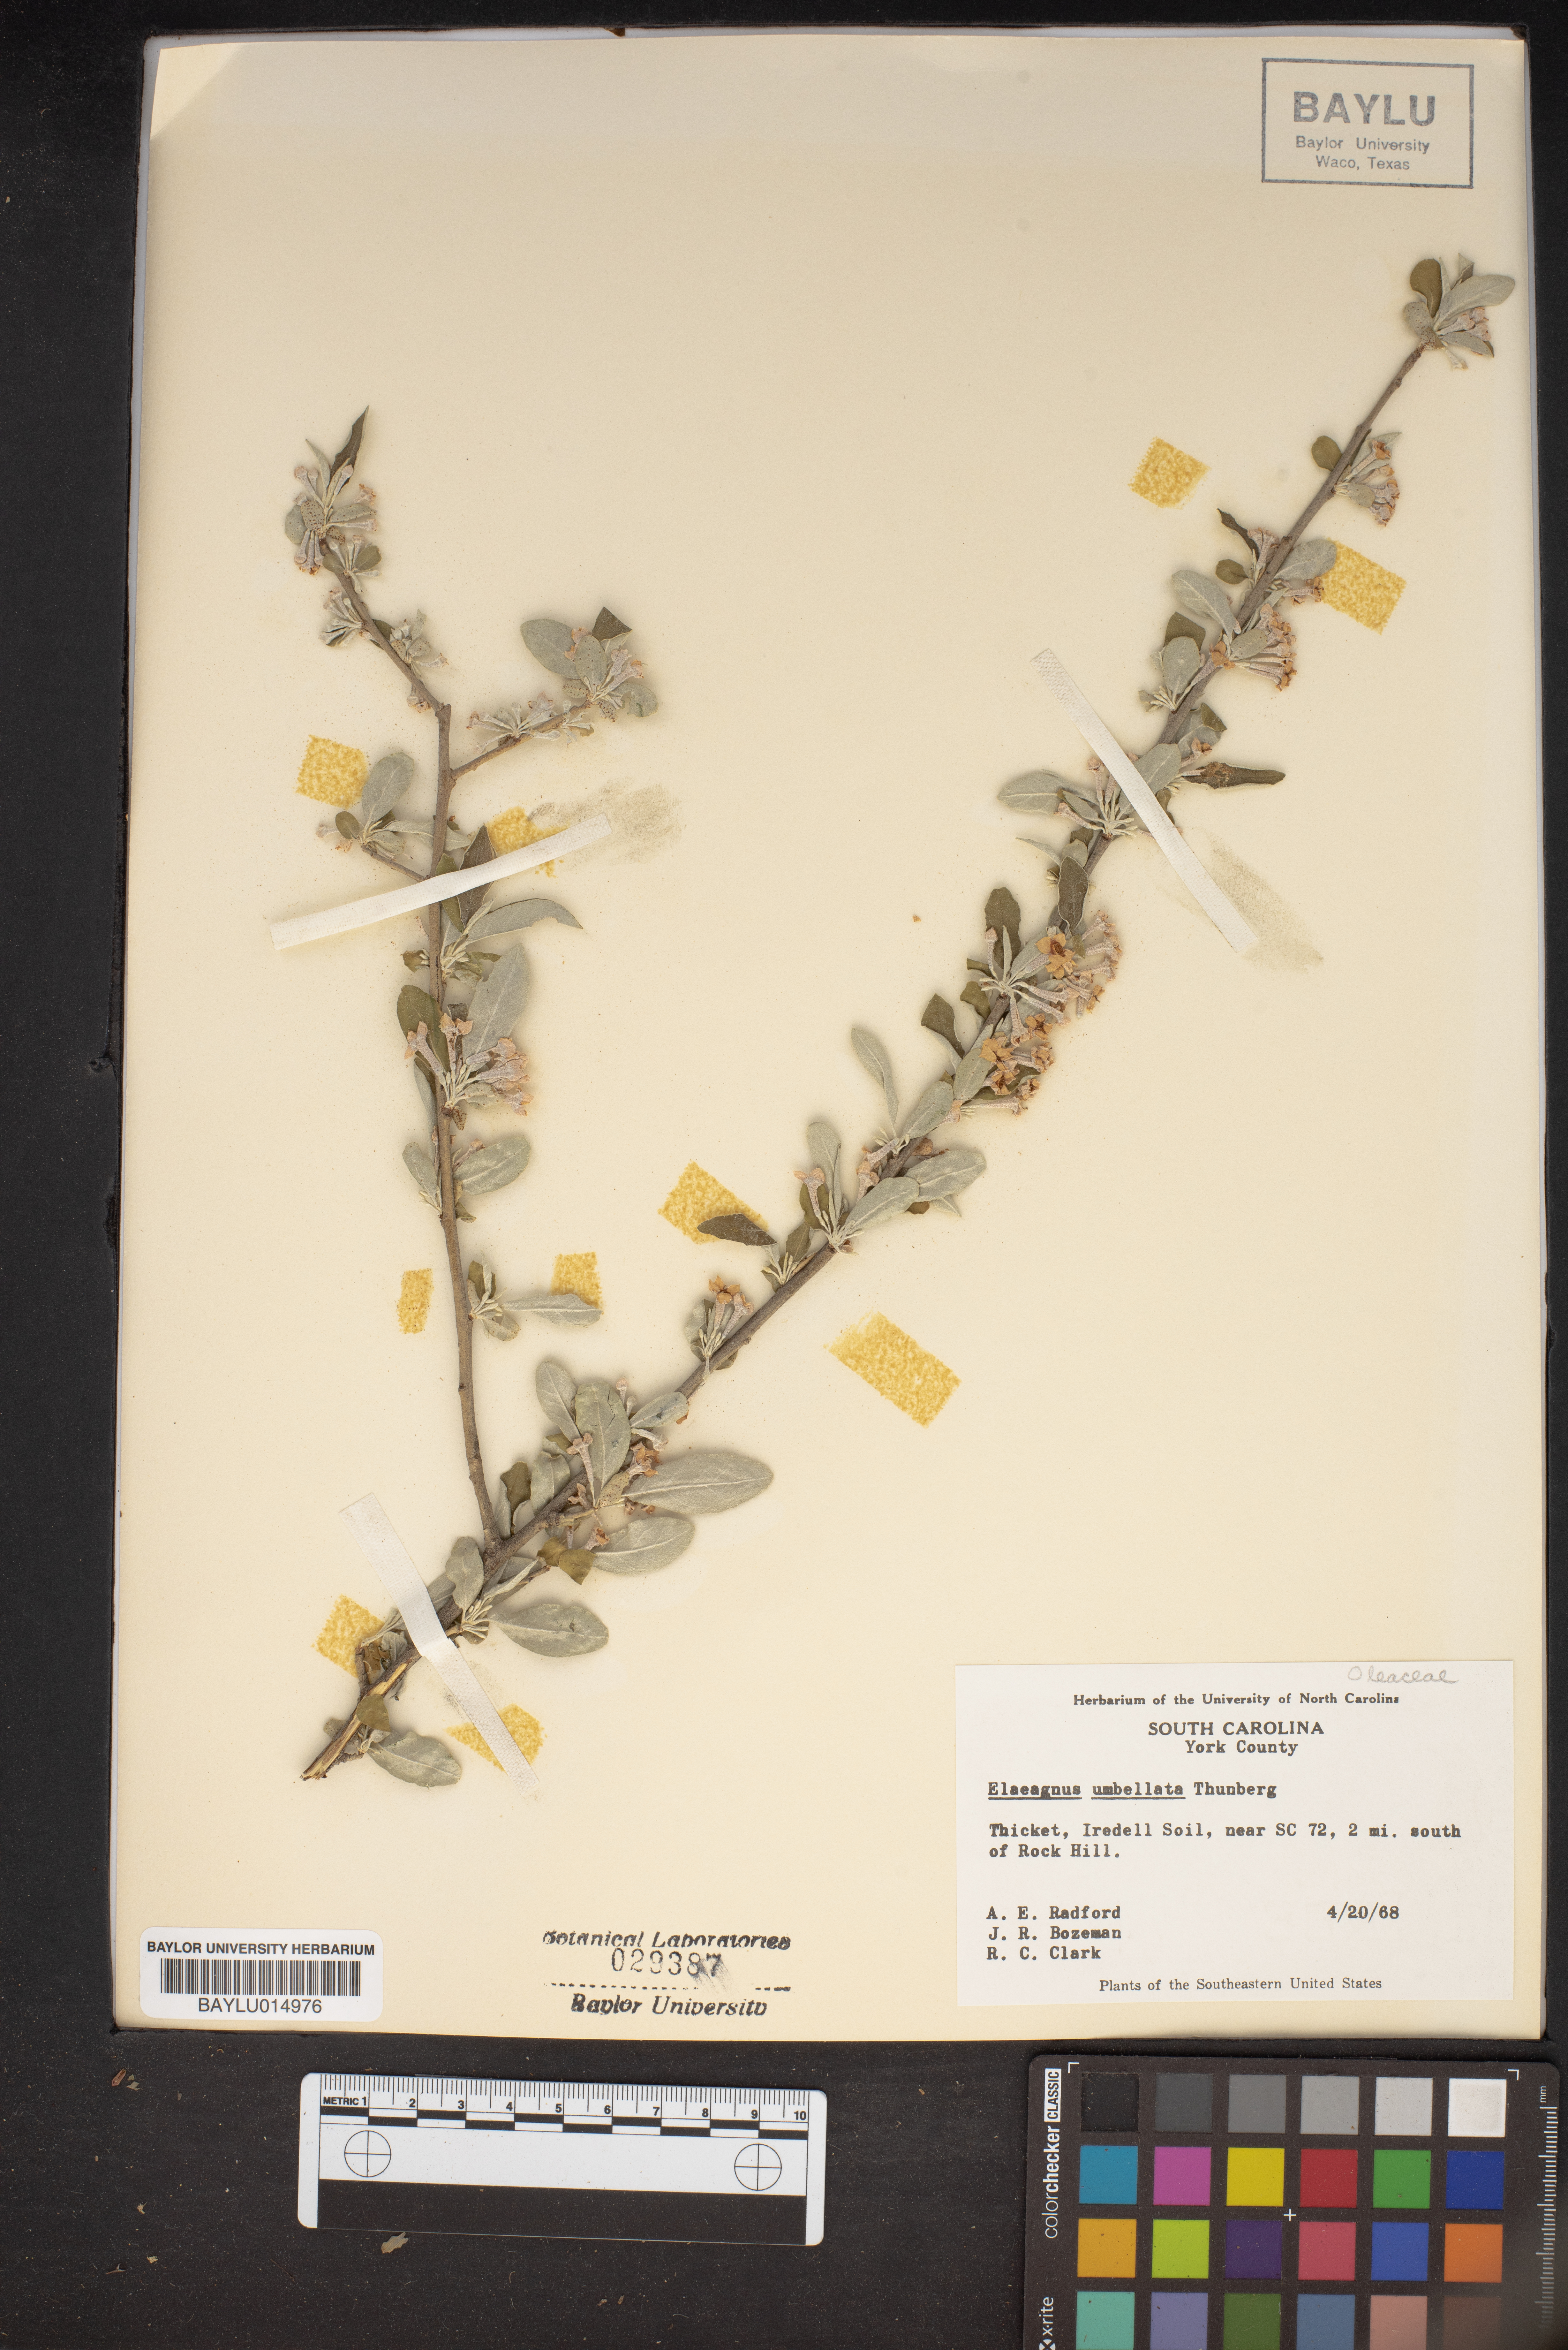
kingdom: Plantae
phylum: Tracheophyta
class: Magnoliopsida
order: Rosales
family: Elaeagnaceae
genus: Elaeagnus
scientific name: Elaeagnus umbellata
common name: Autumn olive
